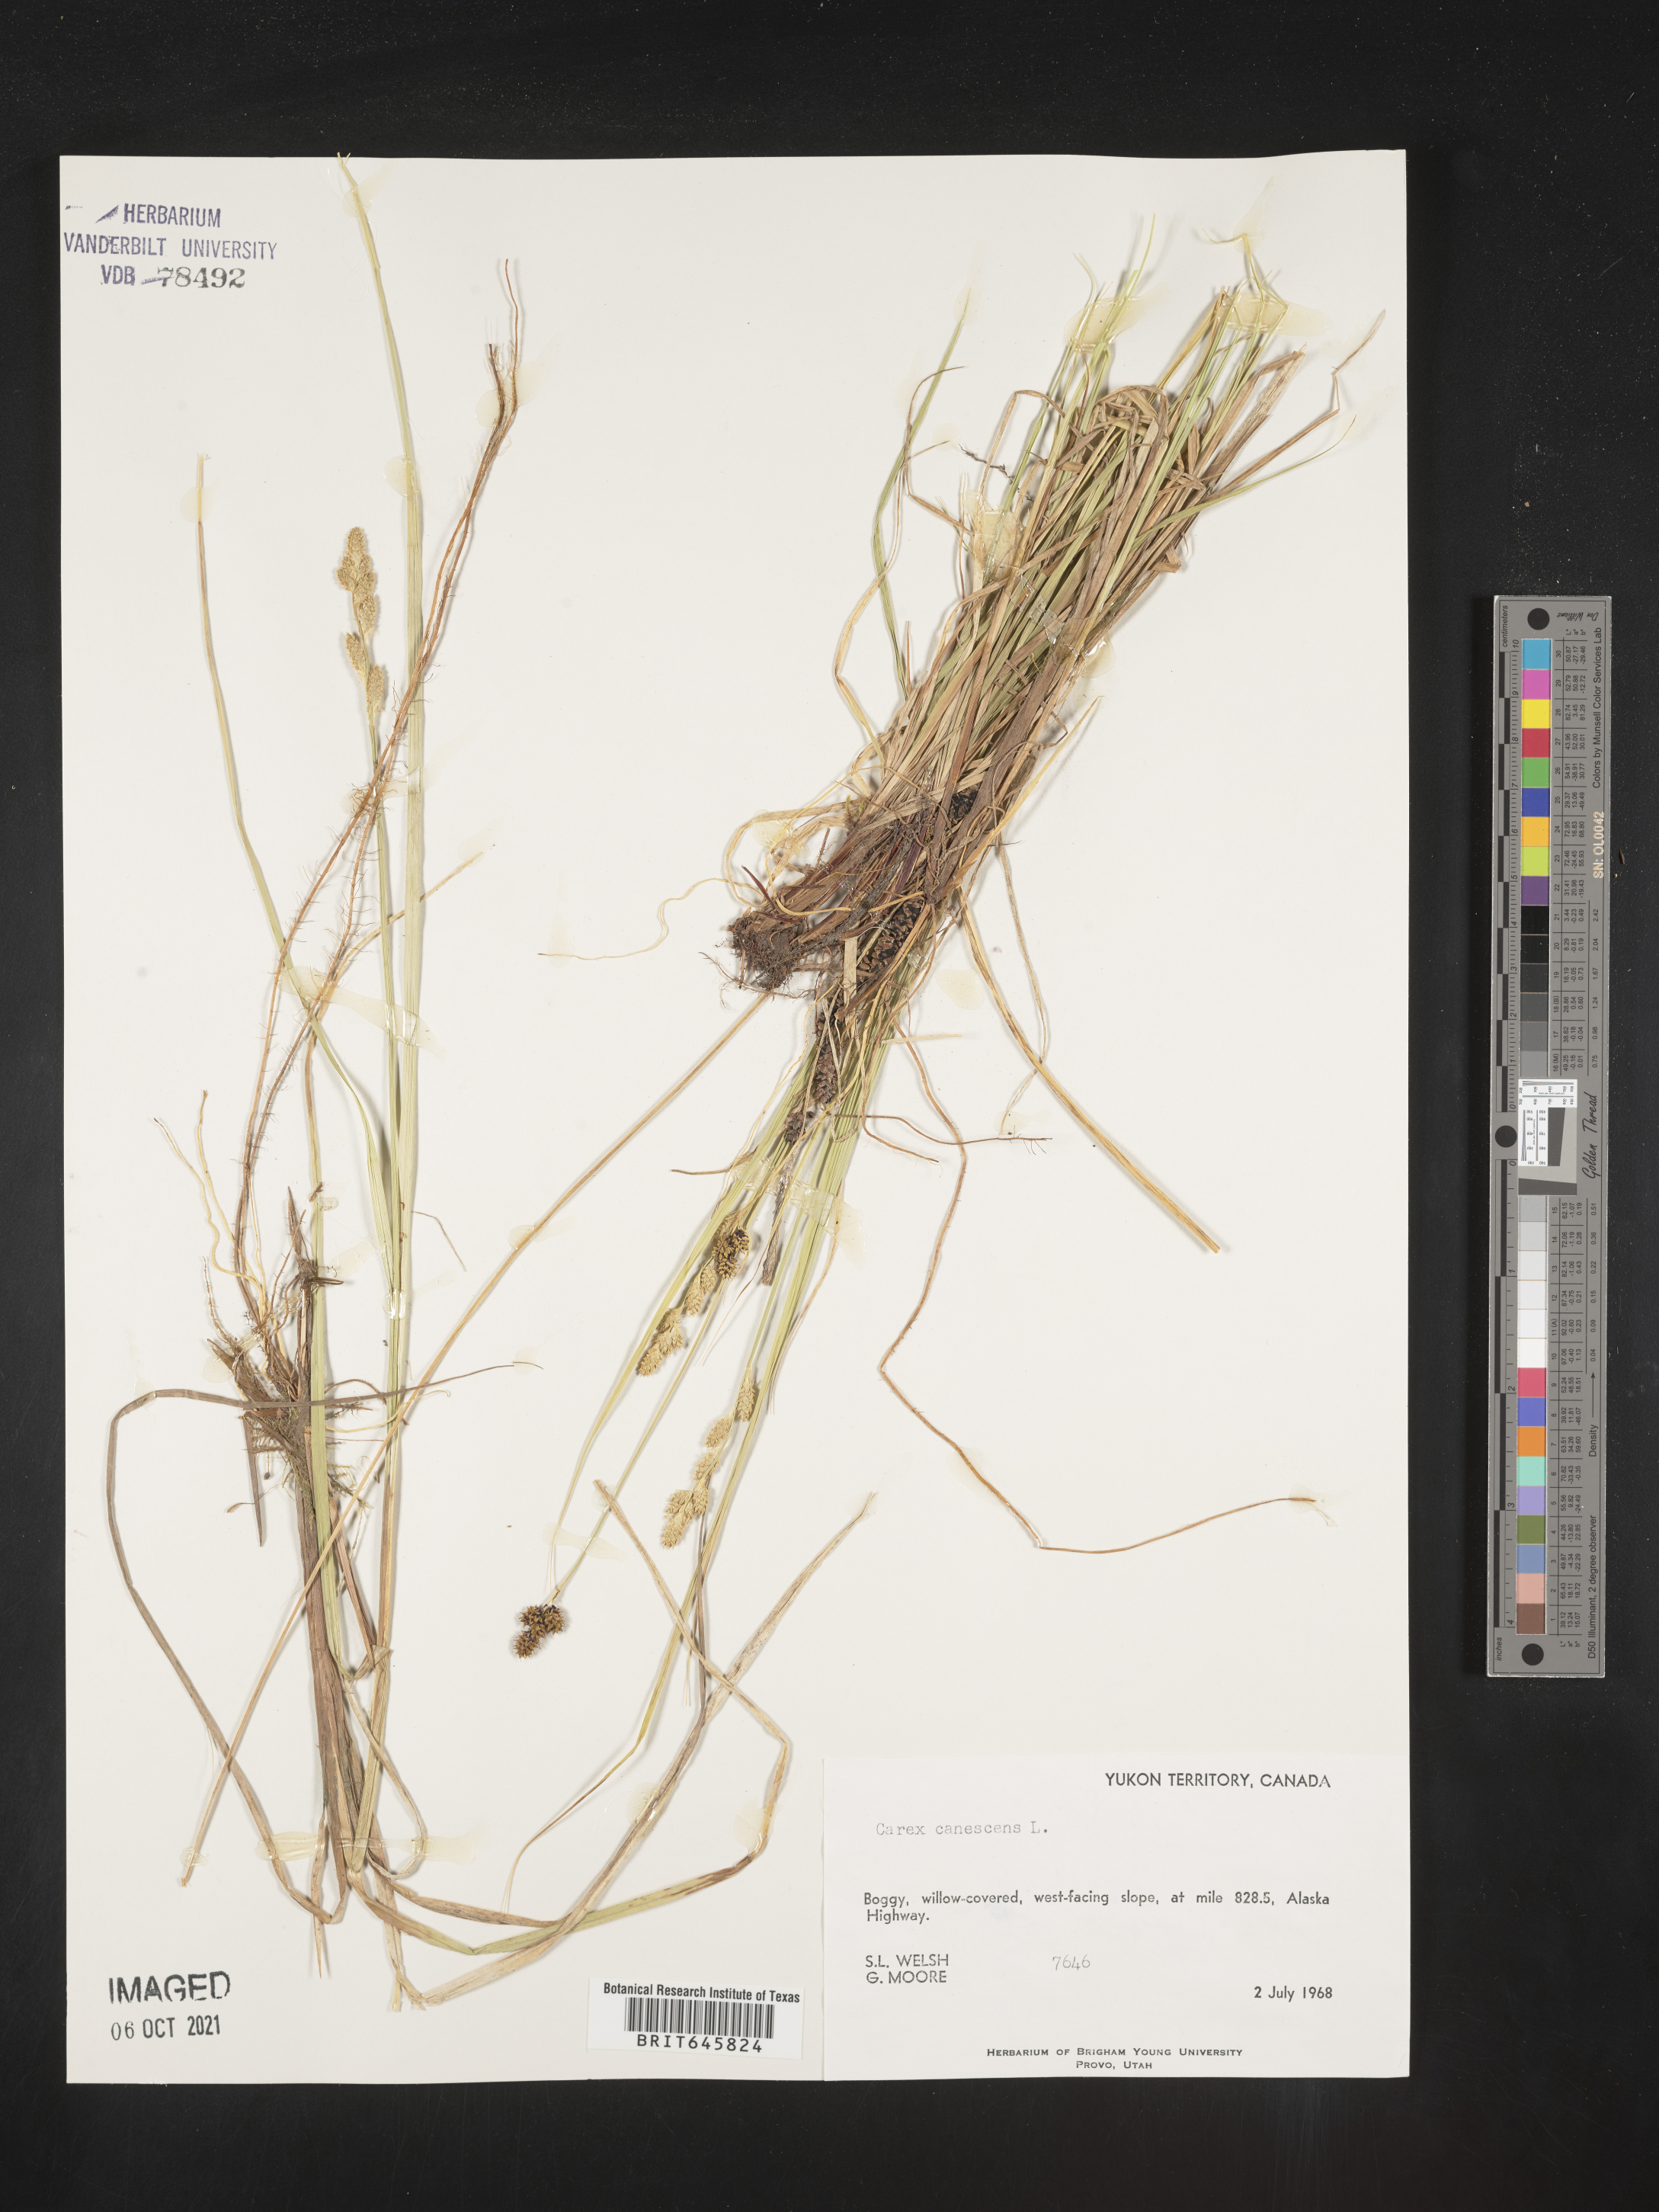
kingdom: Plantae
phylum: Tracheophyta
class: Liliopsida
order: Poales
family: Cyperaceae
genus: Carex
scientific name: Carex canescens
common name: White sedge
